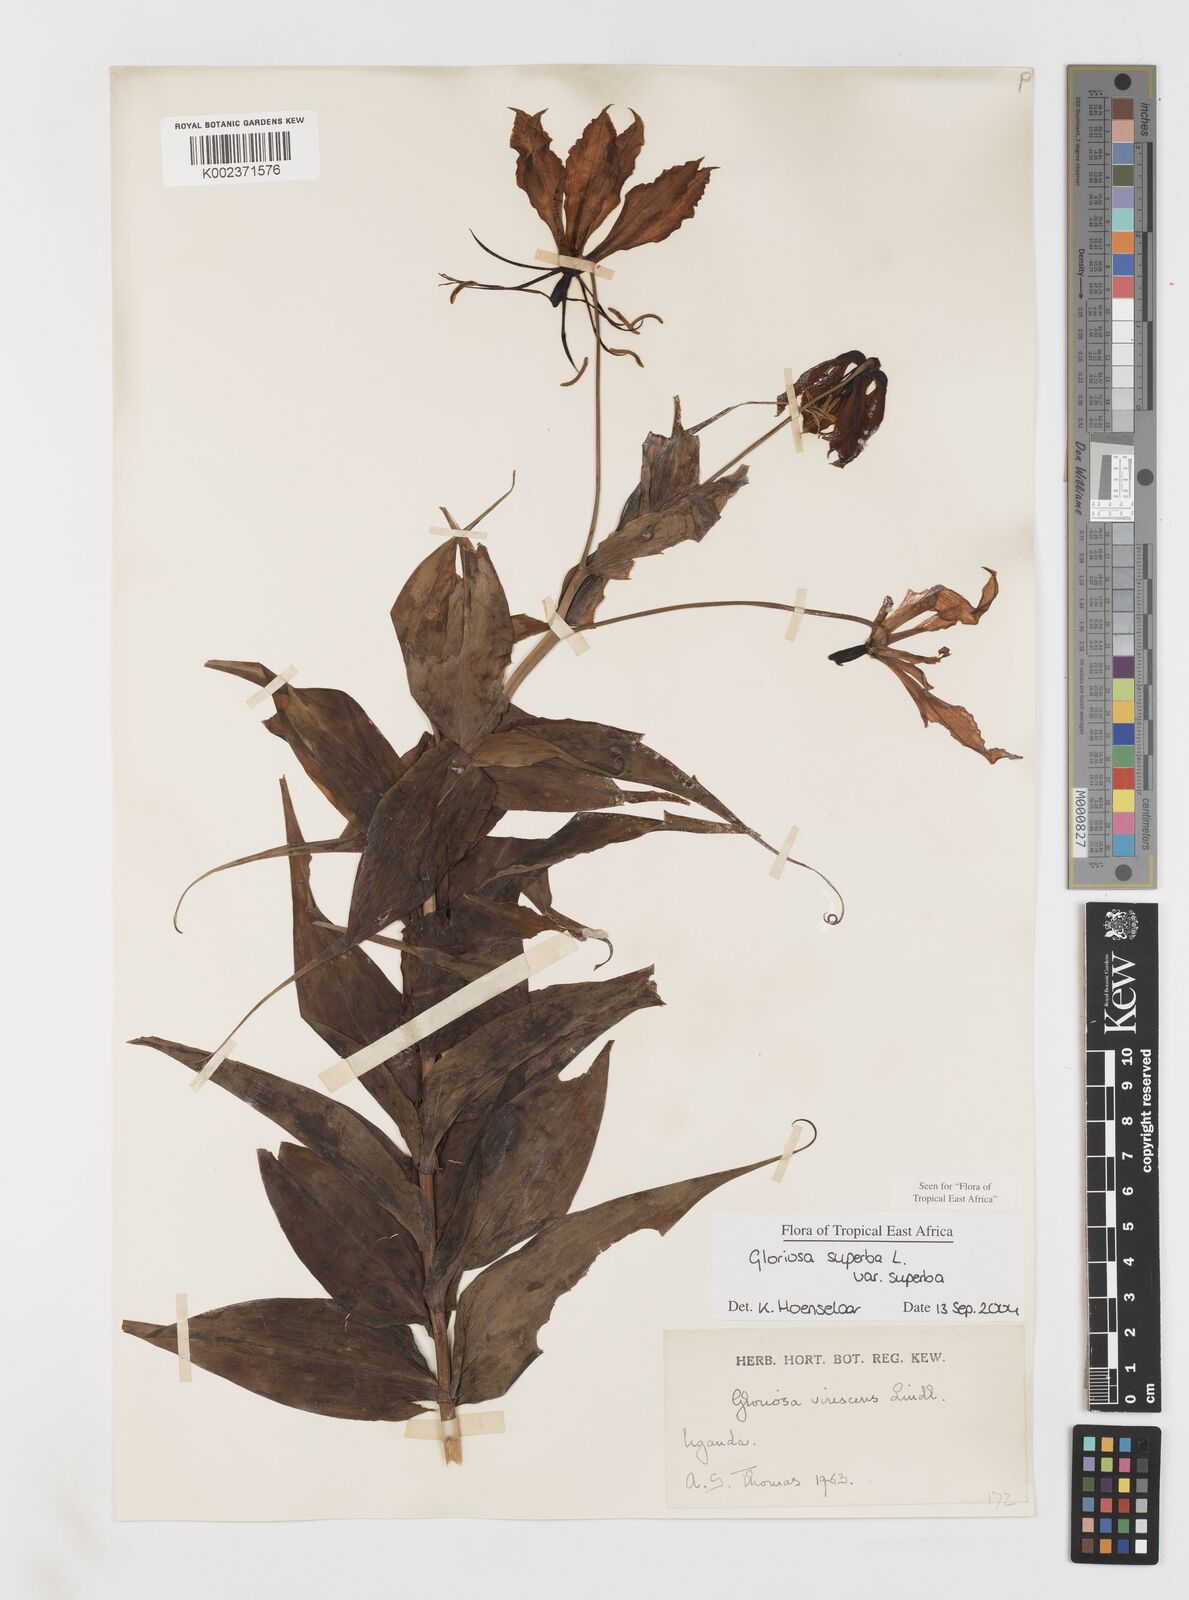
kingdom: Plantae
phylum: Tracheophyta
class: Liliopsida
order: Liliales
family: Colchicaceae
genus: Gloriosa
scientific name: Gloriosa simplex
